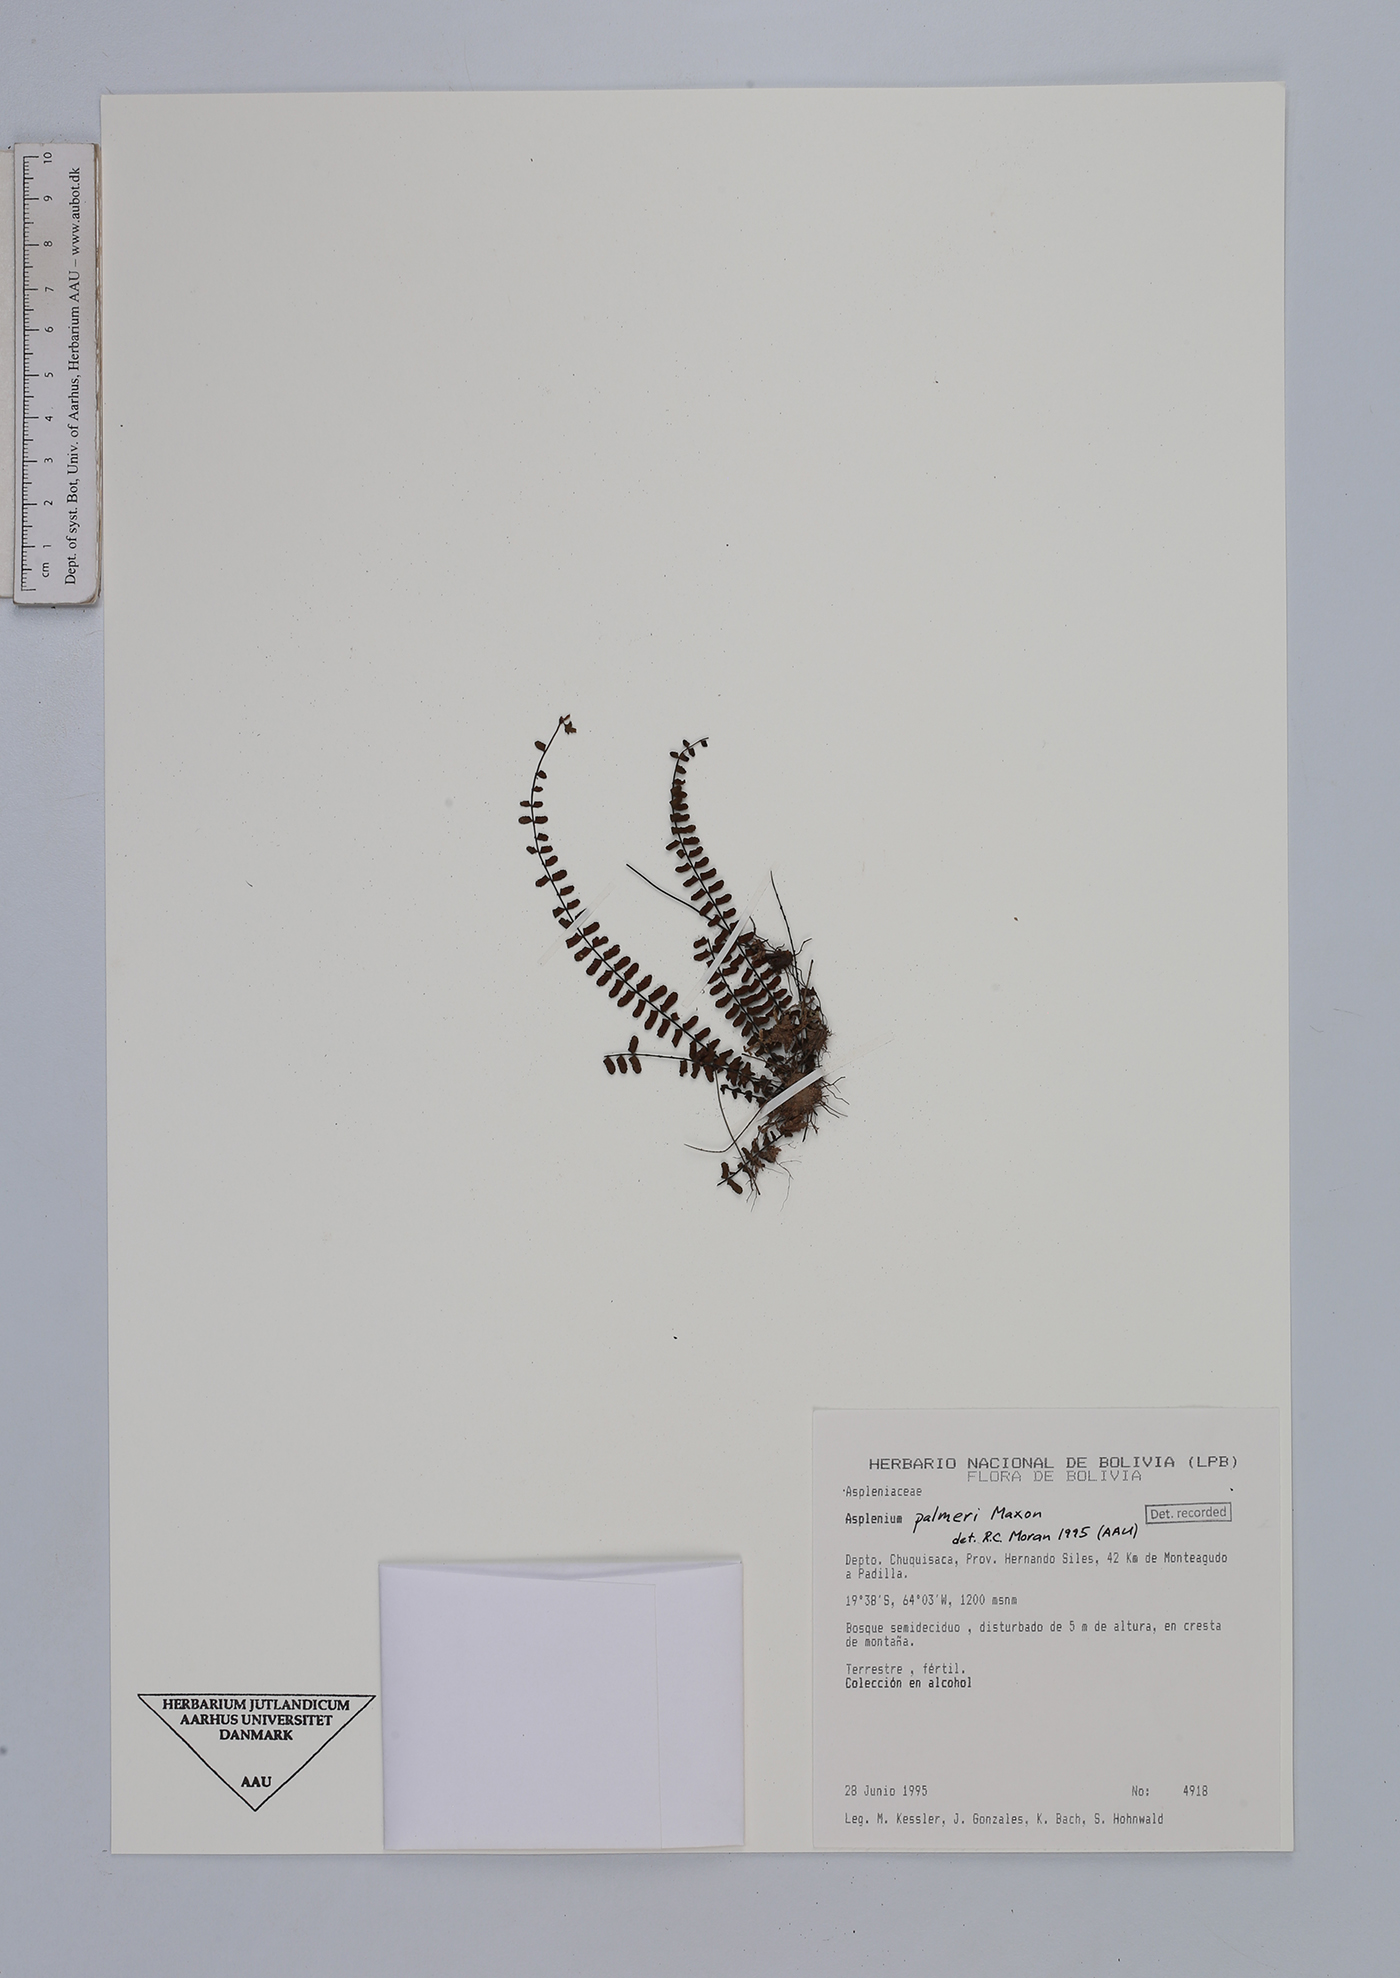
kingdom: Plantae
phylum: Tracheophyta
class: Polypodiopsida
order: Polypodiales
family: Aspleniaceae
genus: Asplenium
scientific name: Asplenium palmeri
